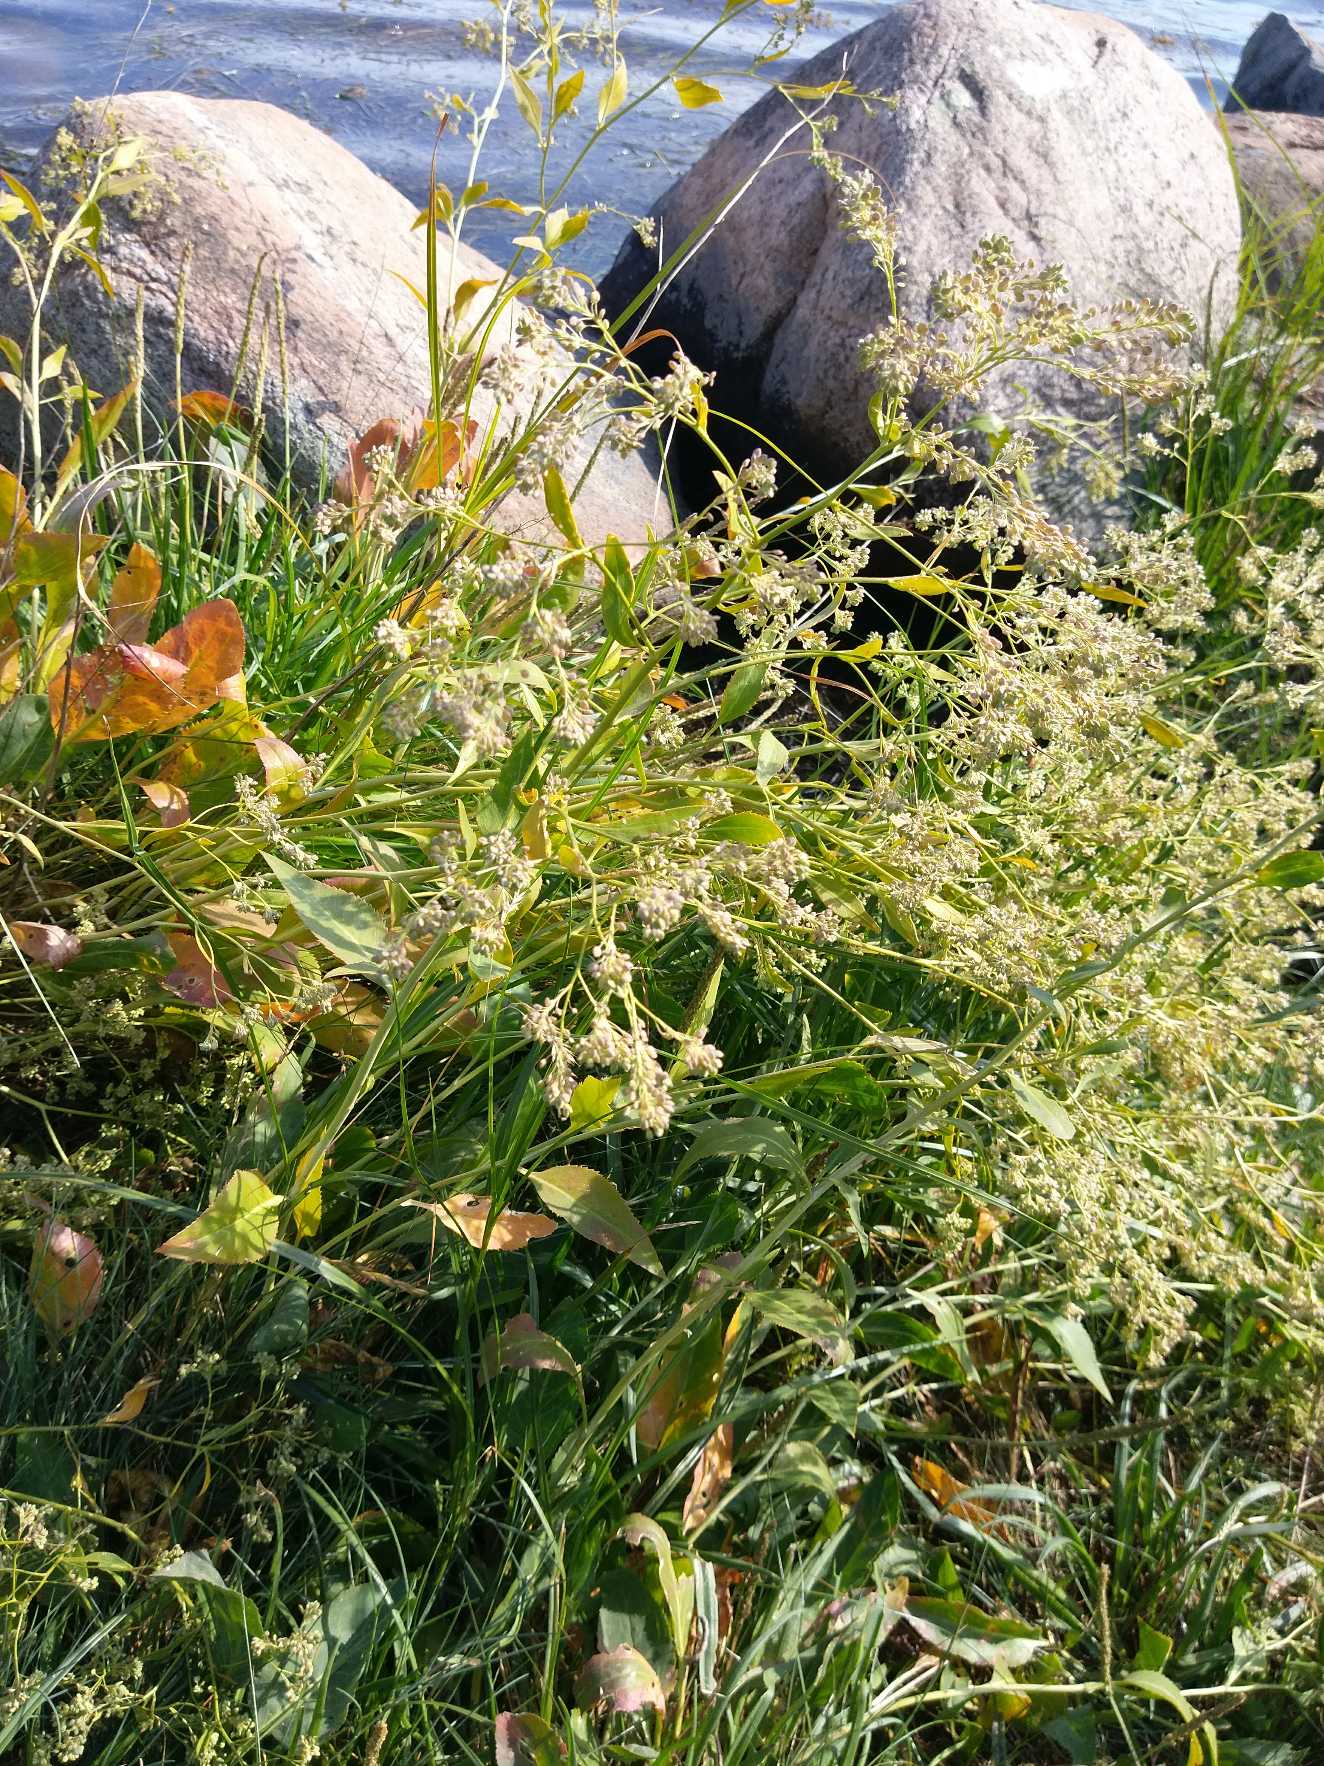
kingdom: Plantae
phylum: Tracheophyta
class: Magnoliopsida
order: Brassicales
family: Brassicaceae
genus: Lepidium
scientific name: Lepidium latifolium
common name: Strand-karse
